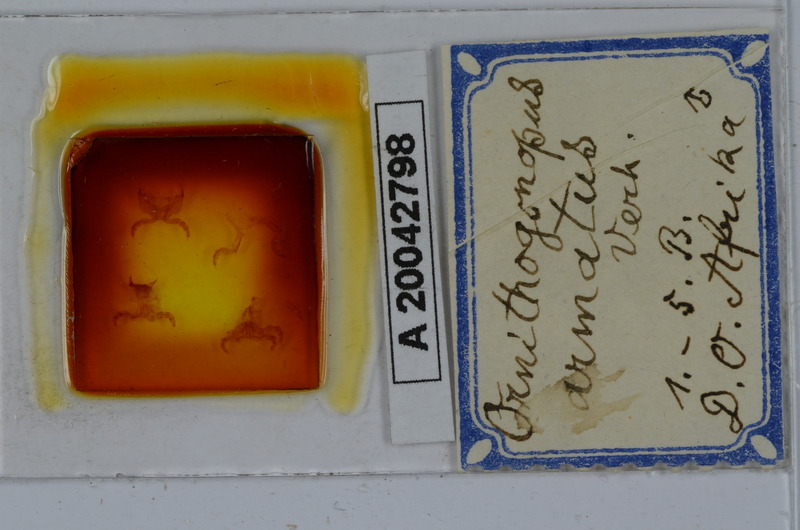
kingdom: Animalia
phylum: Arthropoda
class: Diplopoda
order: Spirostreptida
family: Spirostreptidae
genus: Macrolenostreptus
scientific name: Macrolenostreptus brachycerus
